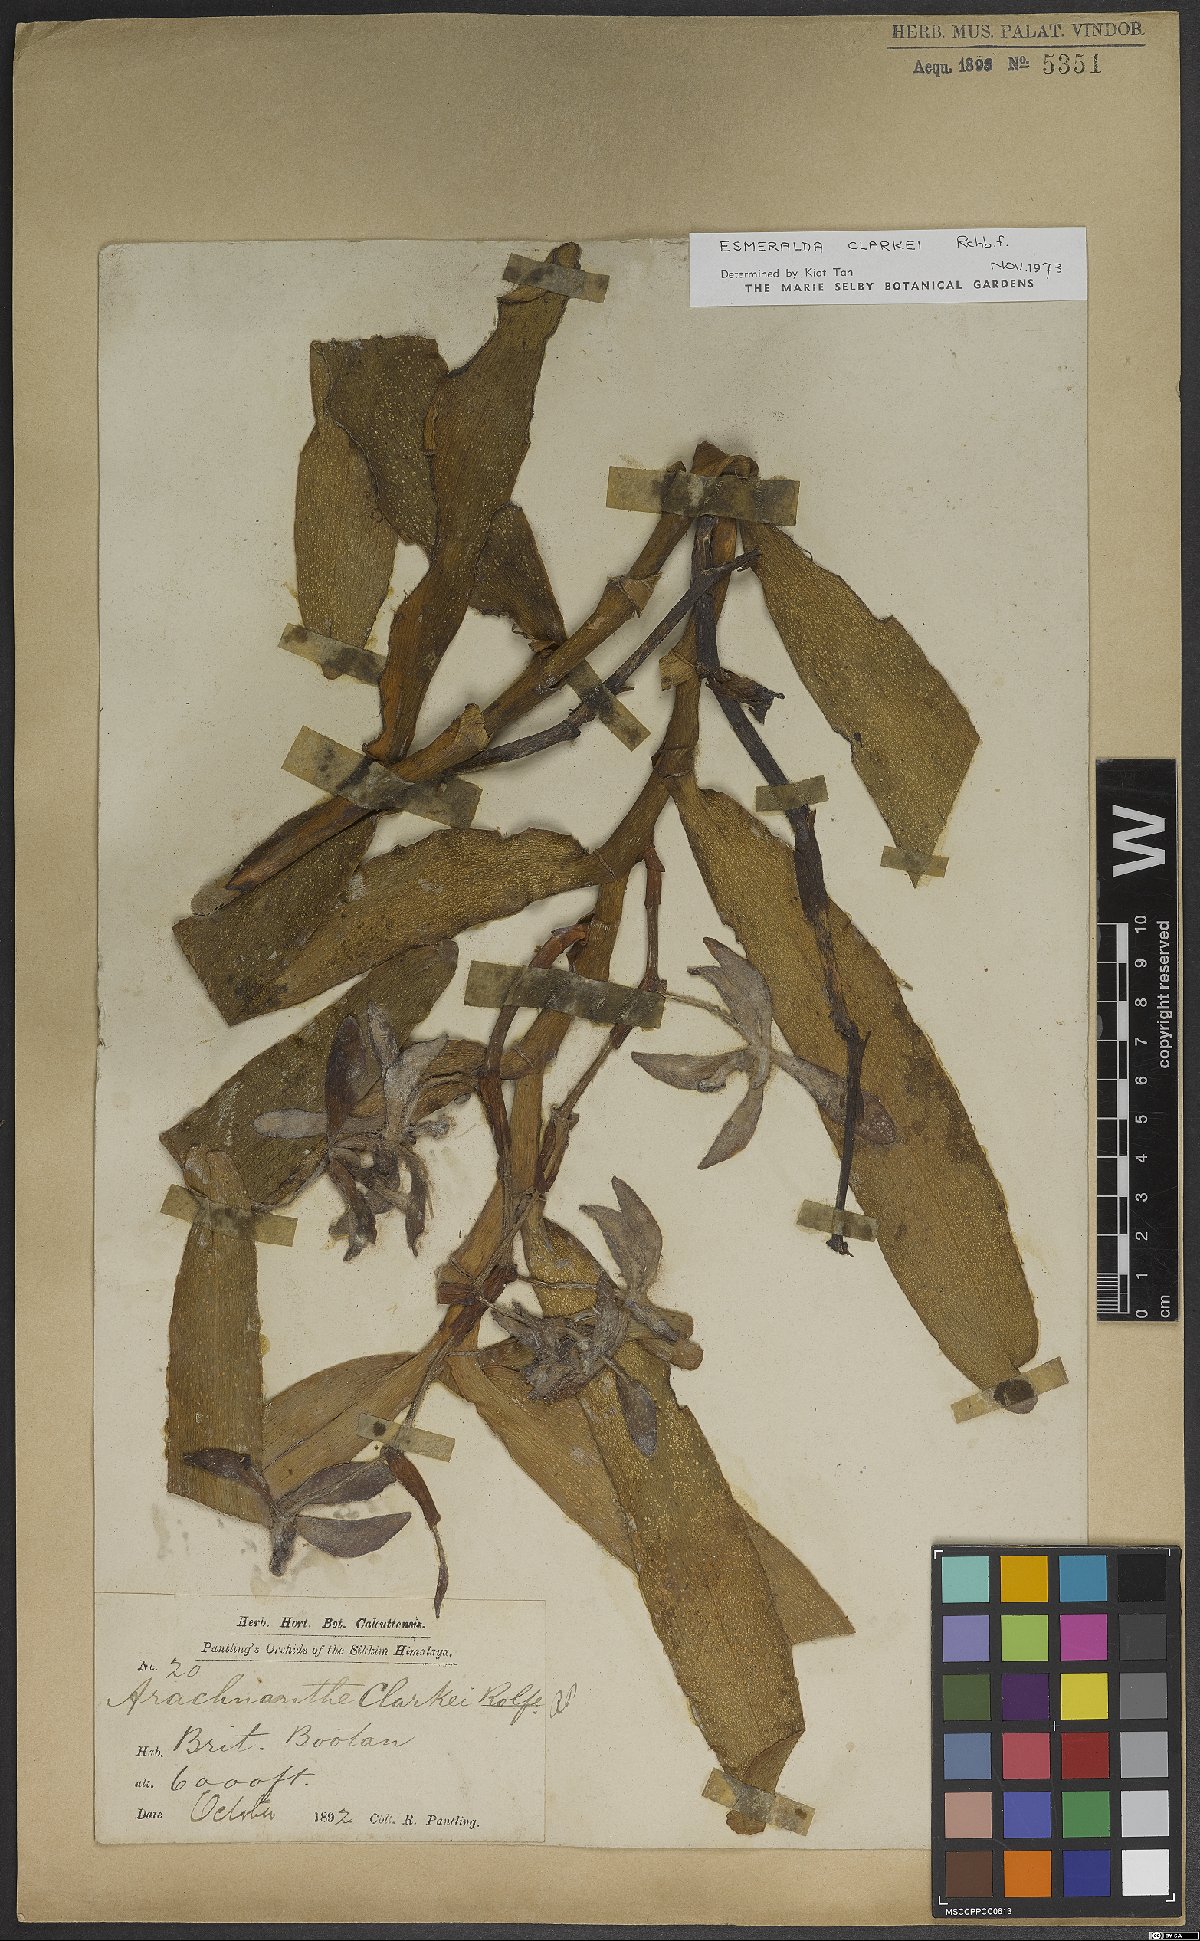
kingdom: Plantae
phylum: Tracheophyta
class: Liliopsida
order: Asparagales
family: Orchidaceae
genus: Arachnis
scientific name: Arachnis
